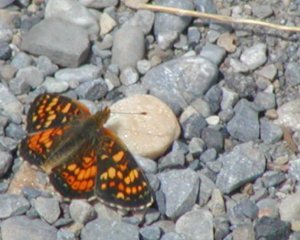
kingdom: Animalia
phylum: Arthropoda
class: Insecta
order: Lepidoptera
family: Nymphalidae
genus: Phyciodes
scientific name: Phyciodes batesii
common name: Tawny Crescent
